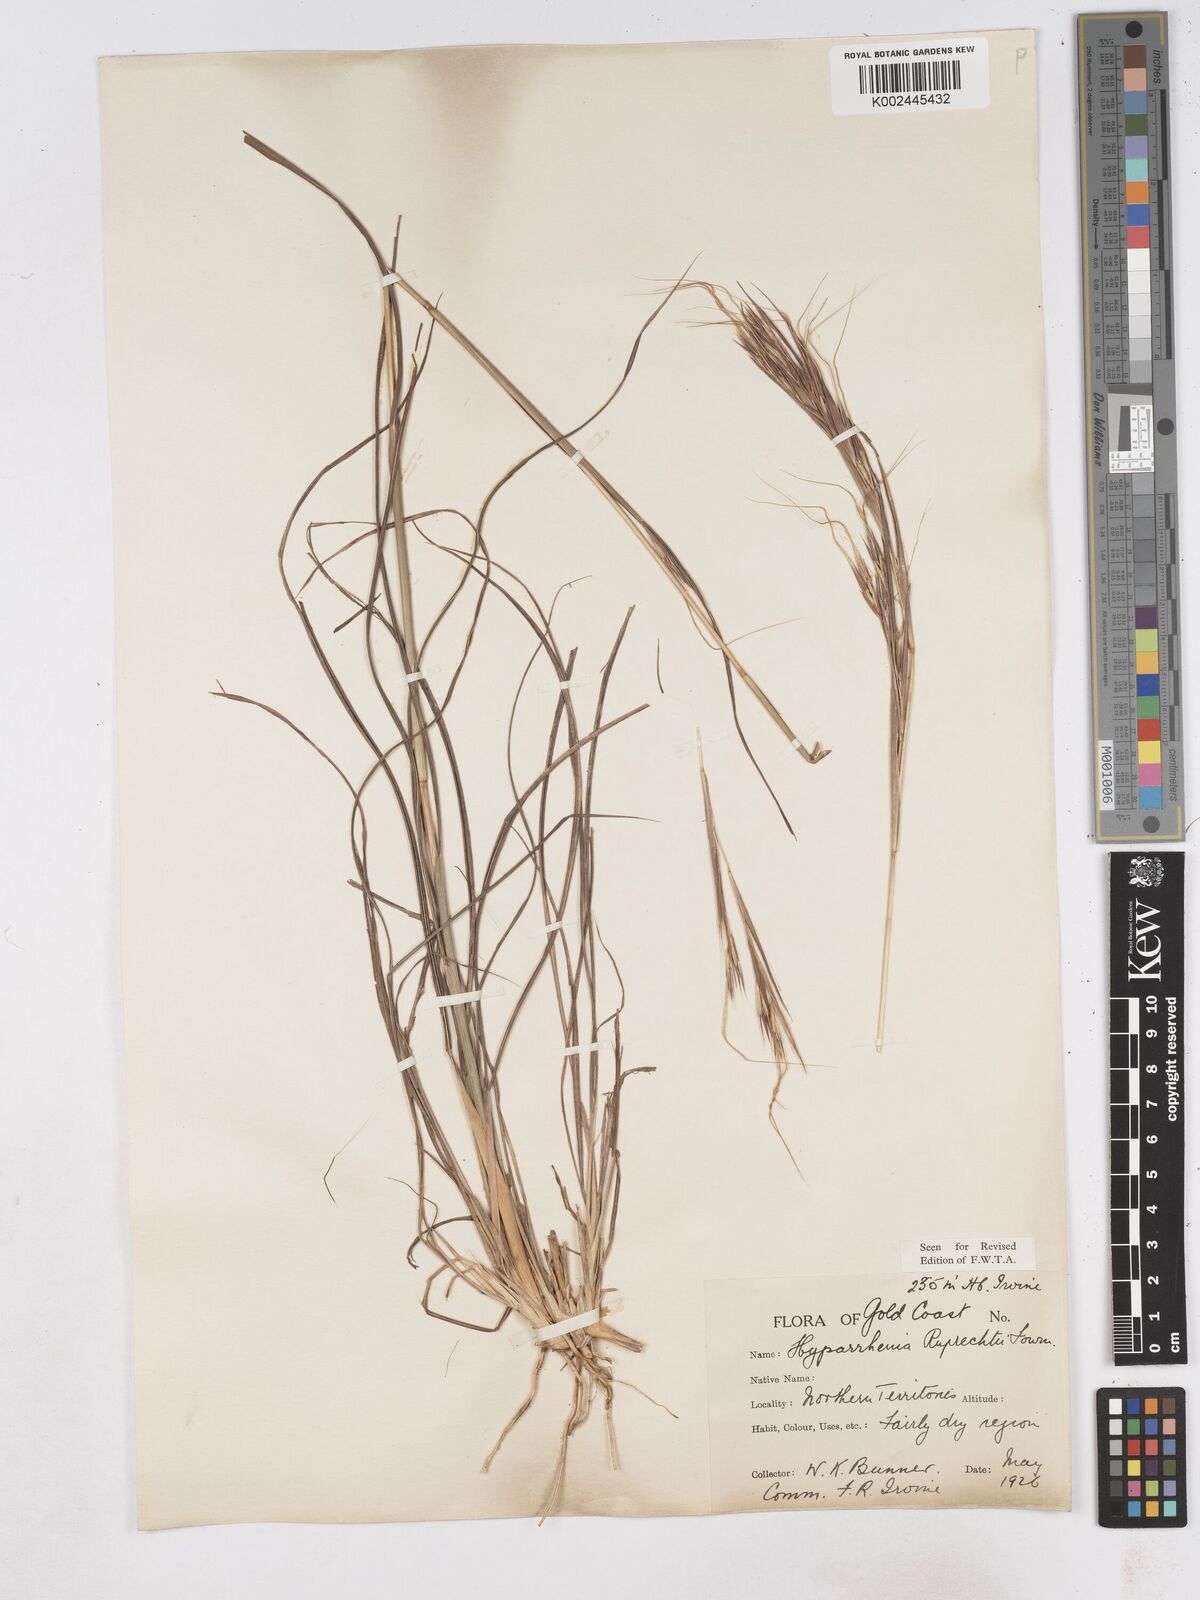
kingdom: Plantae
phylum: Tracheophyta
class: Liliopsida
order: Poales
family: Poaceae
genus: Hyperthelia
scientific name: Hyperthelia dissoluta
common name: Yellow thatching grass
